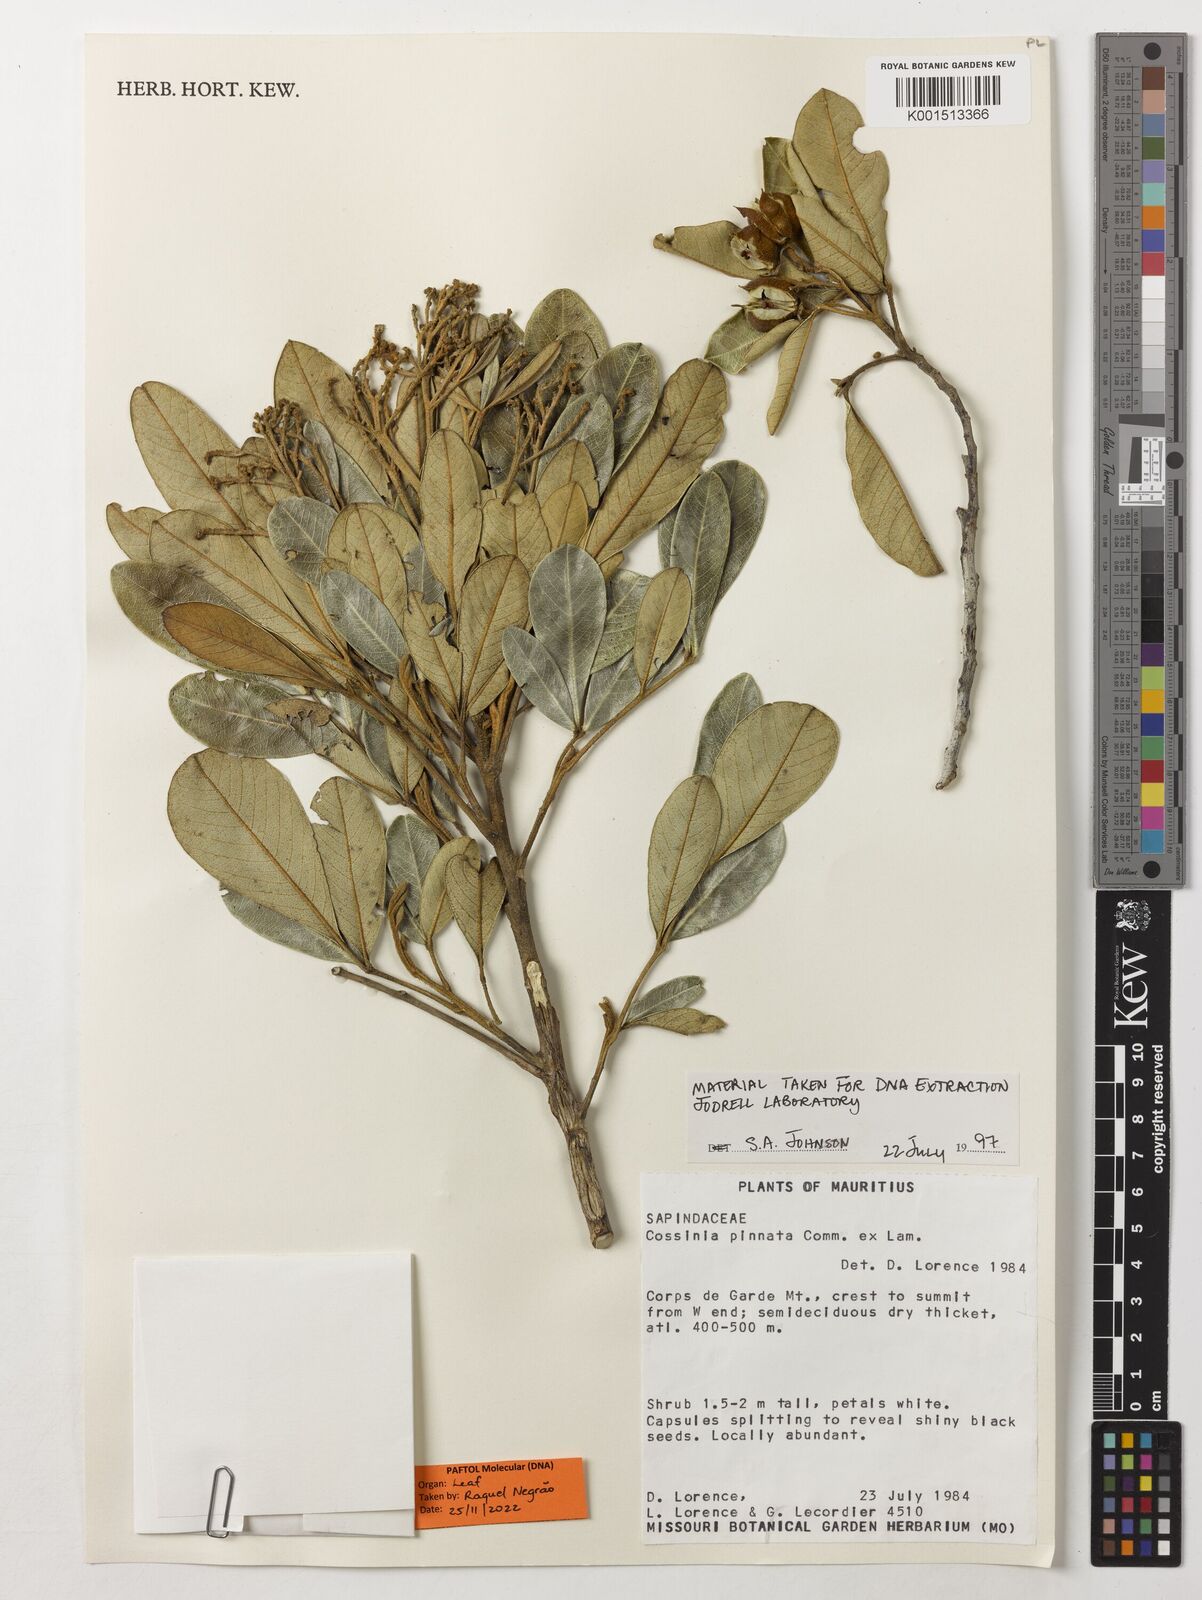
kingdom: Plantae
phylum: Tracheophyta
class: Magnoliopsida
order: Sapindales
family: Sapindaceae
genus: Cossinia
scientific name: Cossinia pinnata
